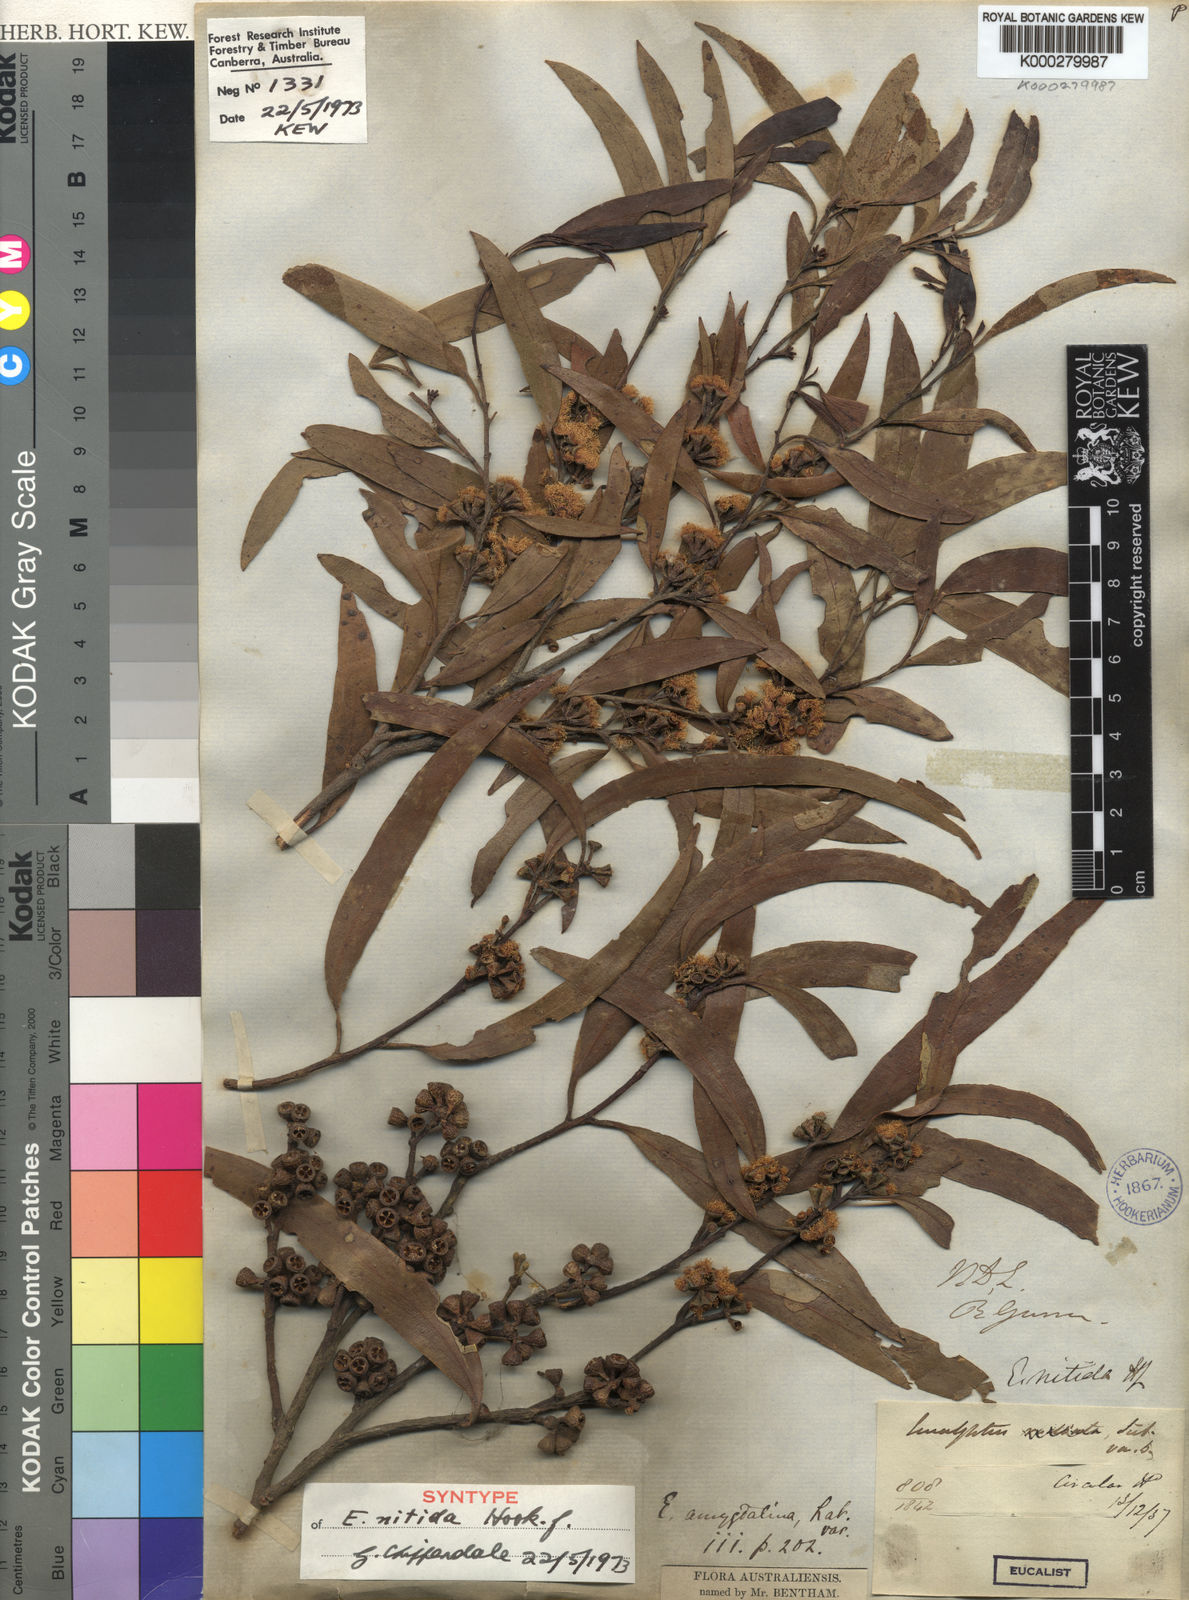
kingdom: Plantae
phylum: Tracheophyta
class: Magnoliopsida
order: Myrtales
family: Myrtaceae
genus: Eucalyptus
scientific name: Eucalyptus nitida
